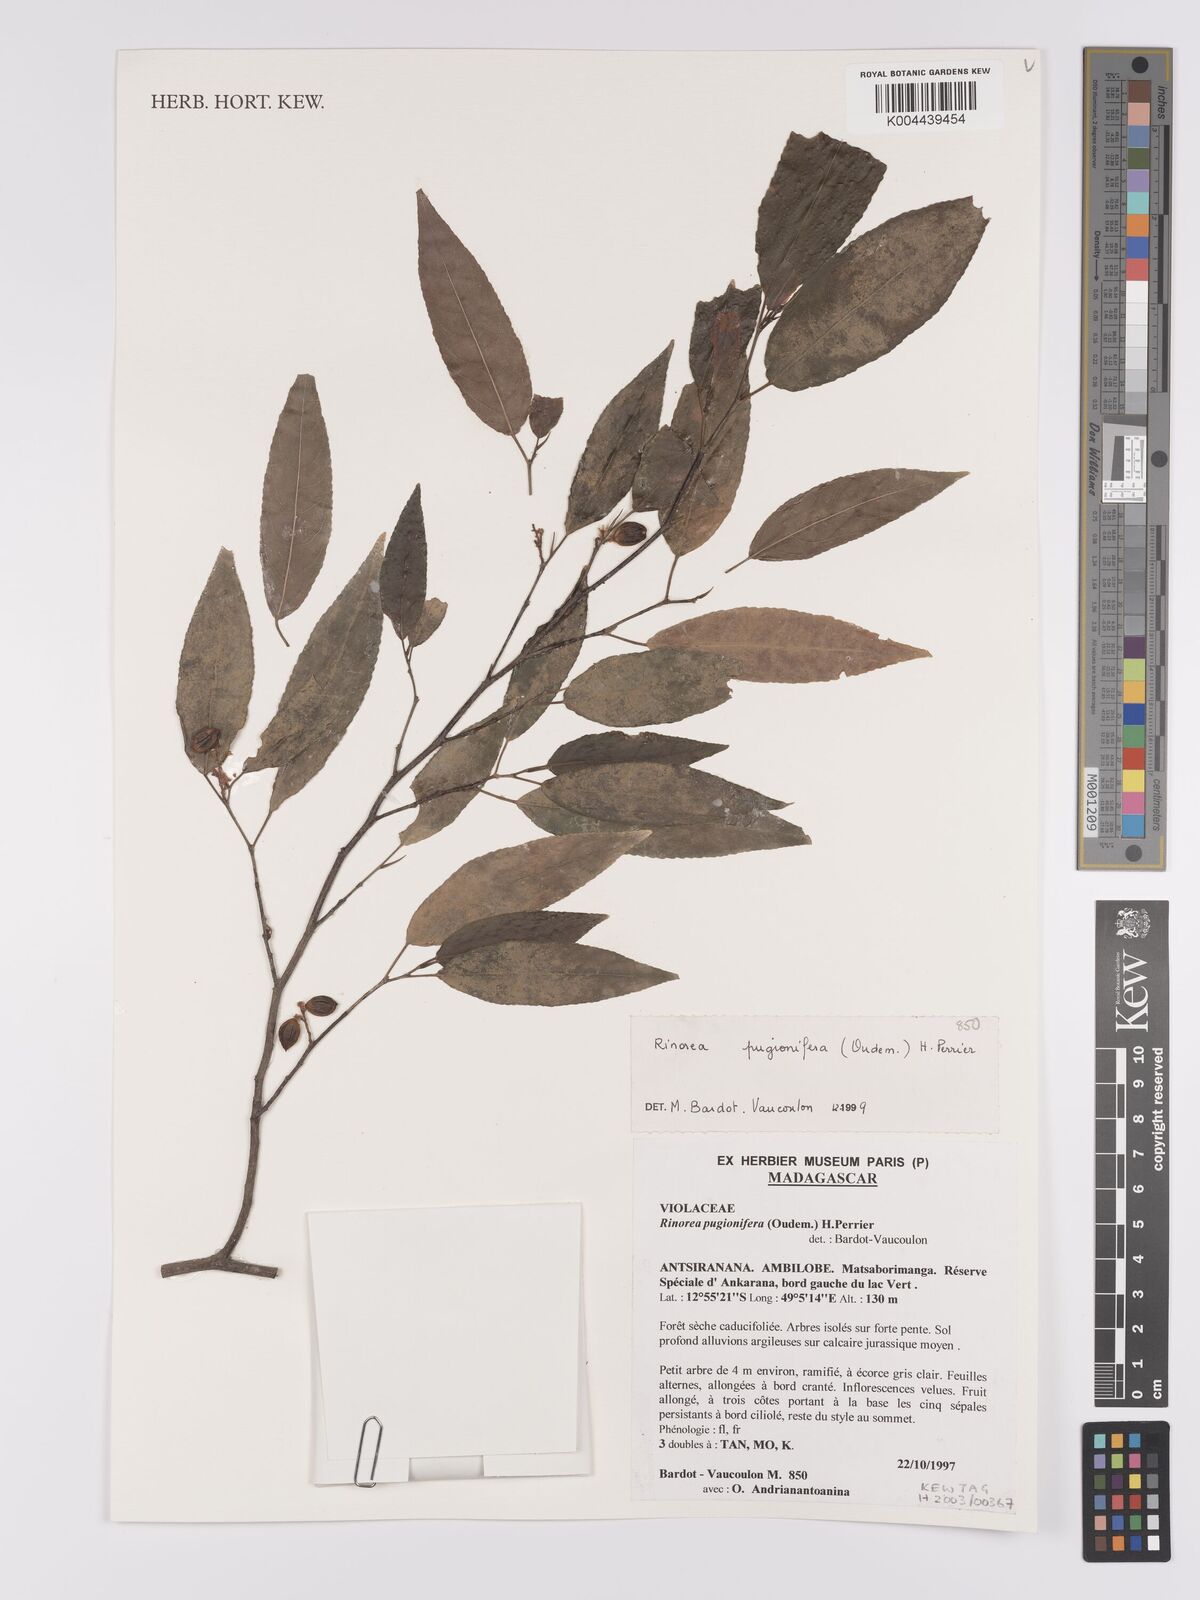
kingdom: Plantae
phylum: Tracheophyta
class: Magnoliopsida
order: Malpighiales
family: Violaceae
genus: Rinorea
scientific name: Rinorea pugionifera
